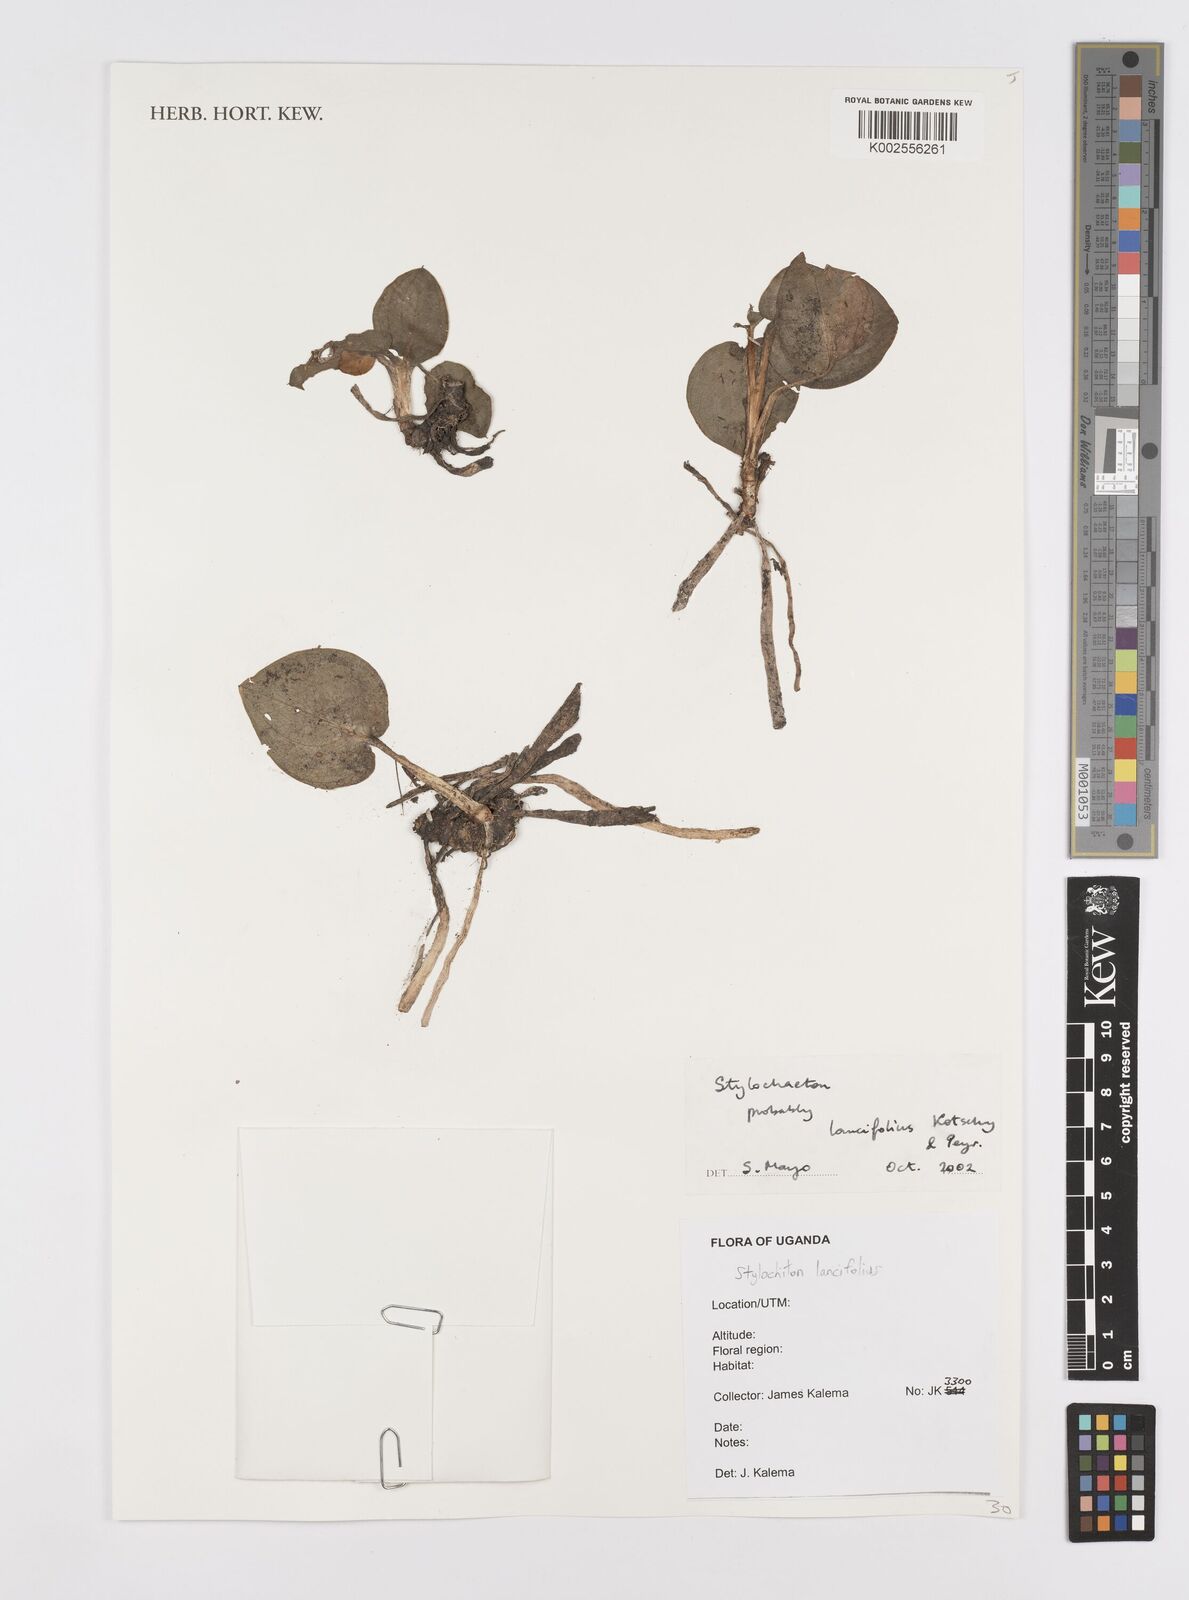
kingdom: Plantae
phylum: Tracheophyta
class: Liliopsida
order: Alismatales
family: Araceae
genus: Stylochaeton
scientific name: Stylochaeton lancifolium
